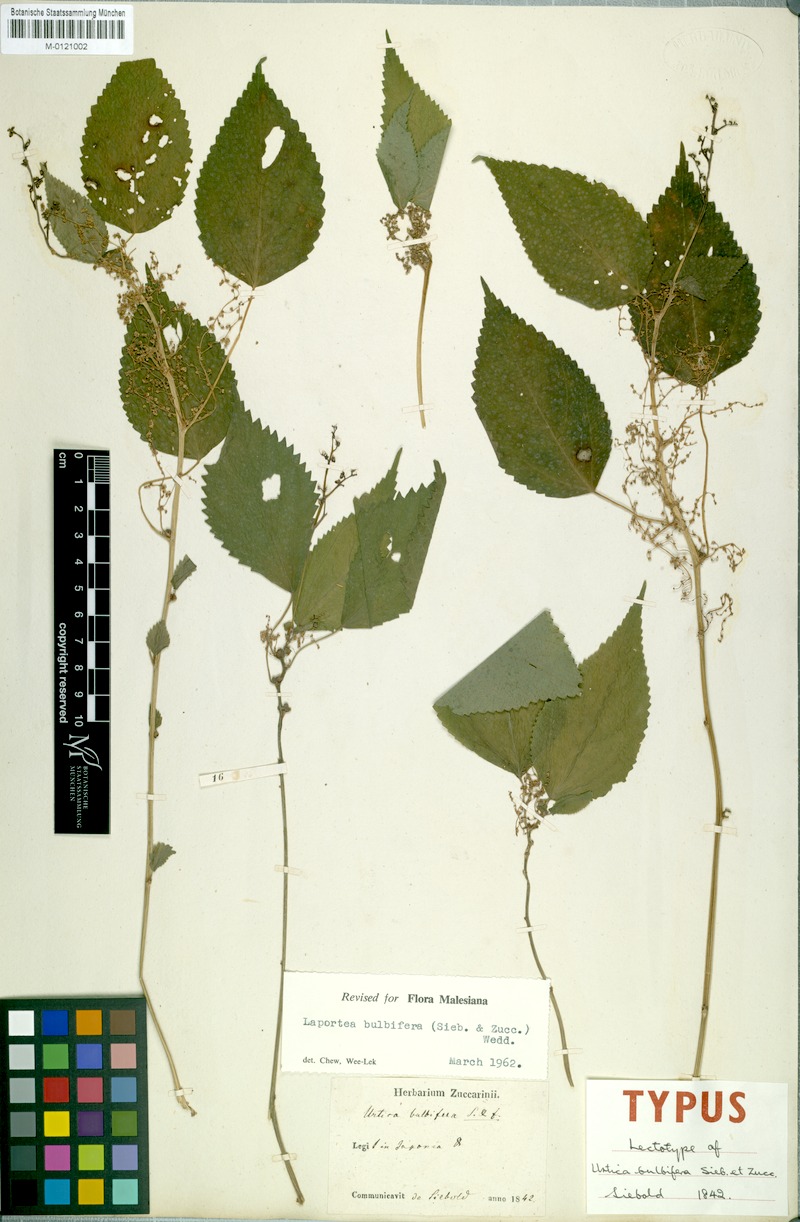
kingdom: Plantae
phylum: Tracheophyta
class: Magnoliopsida
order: Rosales
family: Urticaceae
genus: Debregeasia
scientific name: Debregeasia edulis
